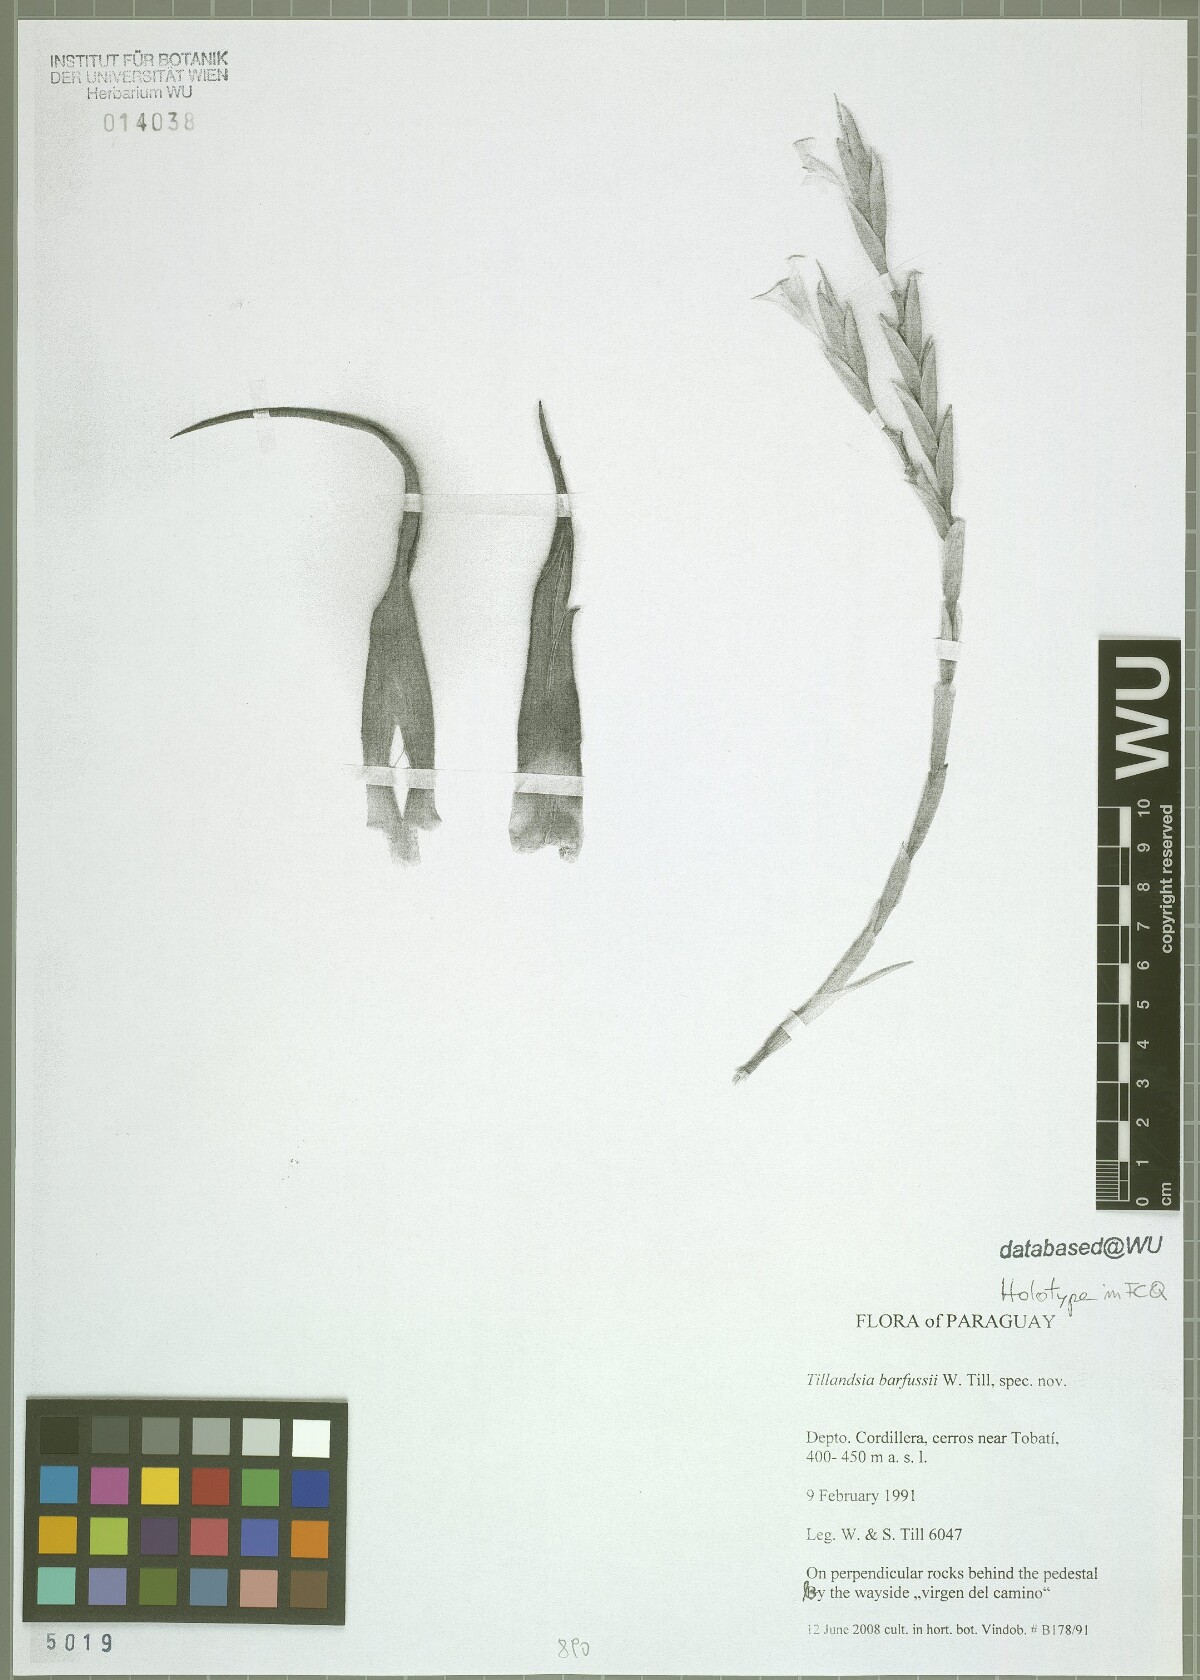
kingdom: Plantae
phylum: Tracheophyta
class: Liliopsida
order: Poales
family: Bromeliaceae
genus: Tillandsia
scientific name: Tillandsia barfussii
